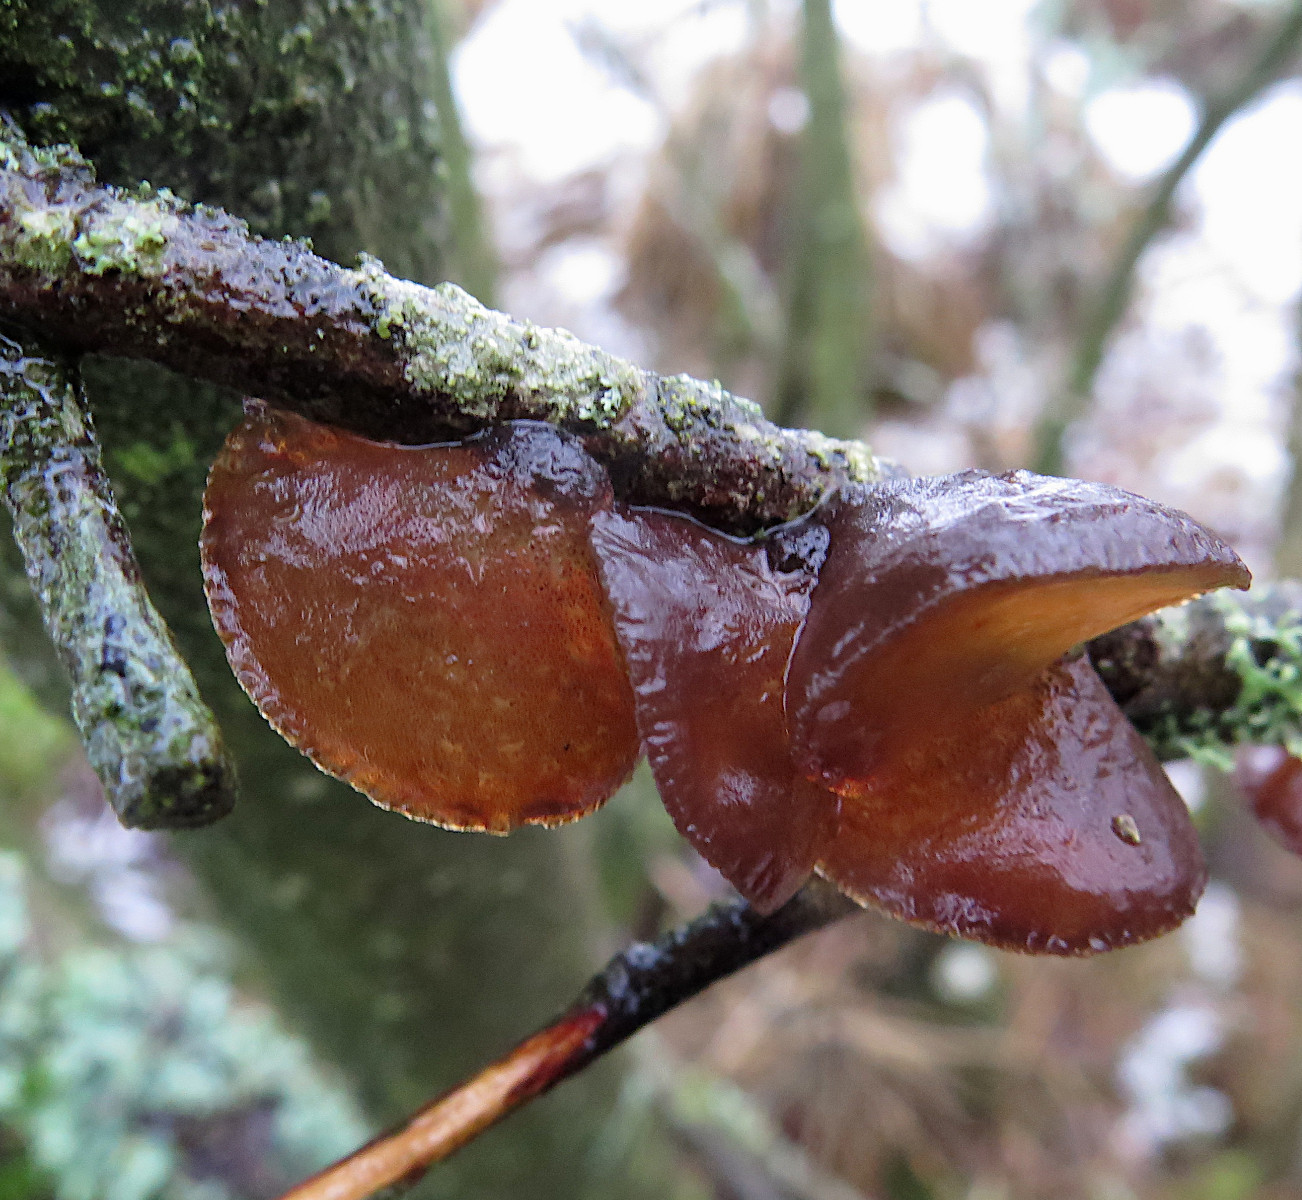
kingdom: Fungi
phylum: Basidiomycota
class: Agaricomycetes
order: Auriculariales
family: Auriculariaceae
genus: Exidia
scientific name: Exidia recisa
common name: pile-bævretop
